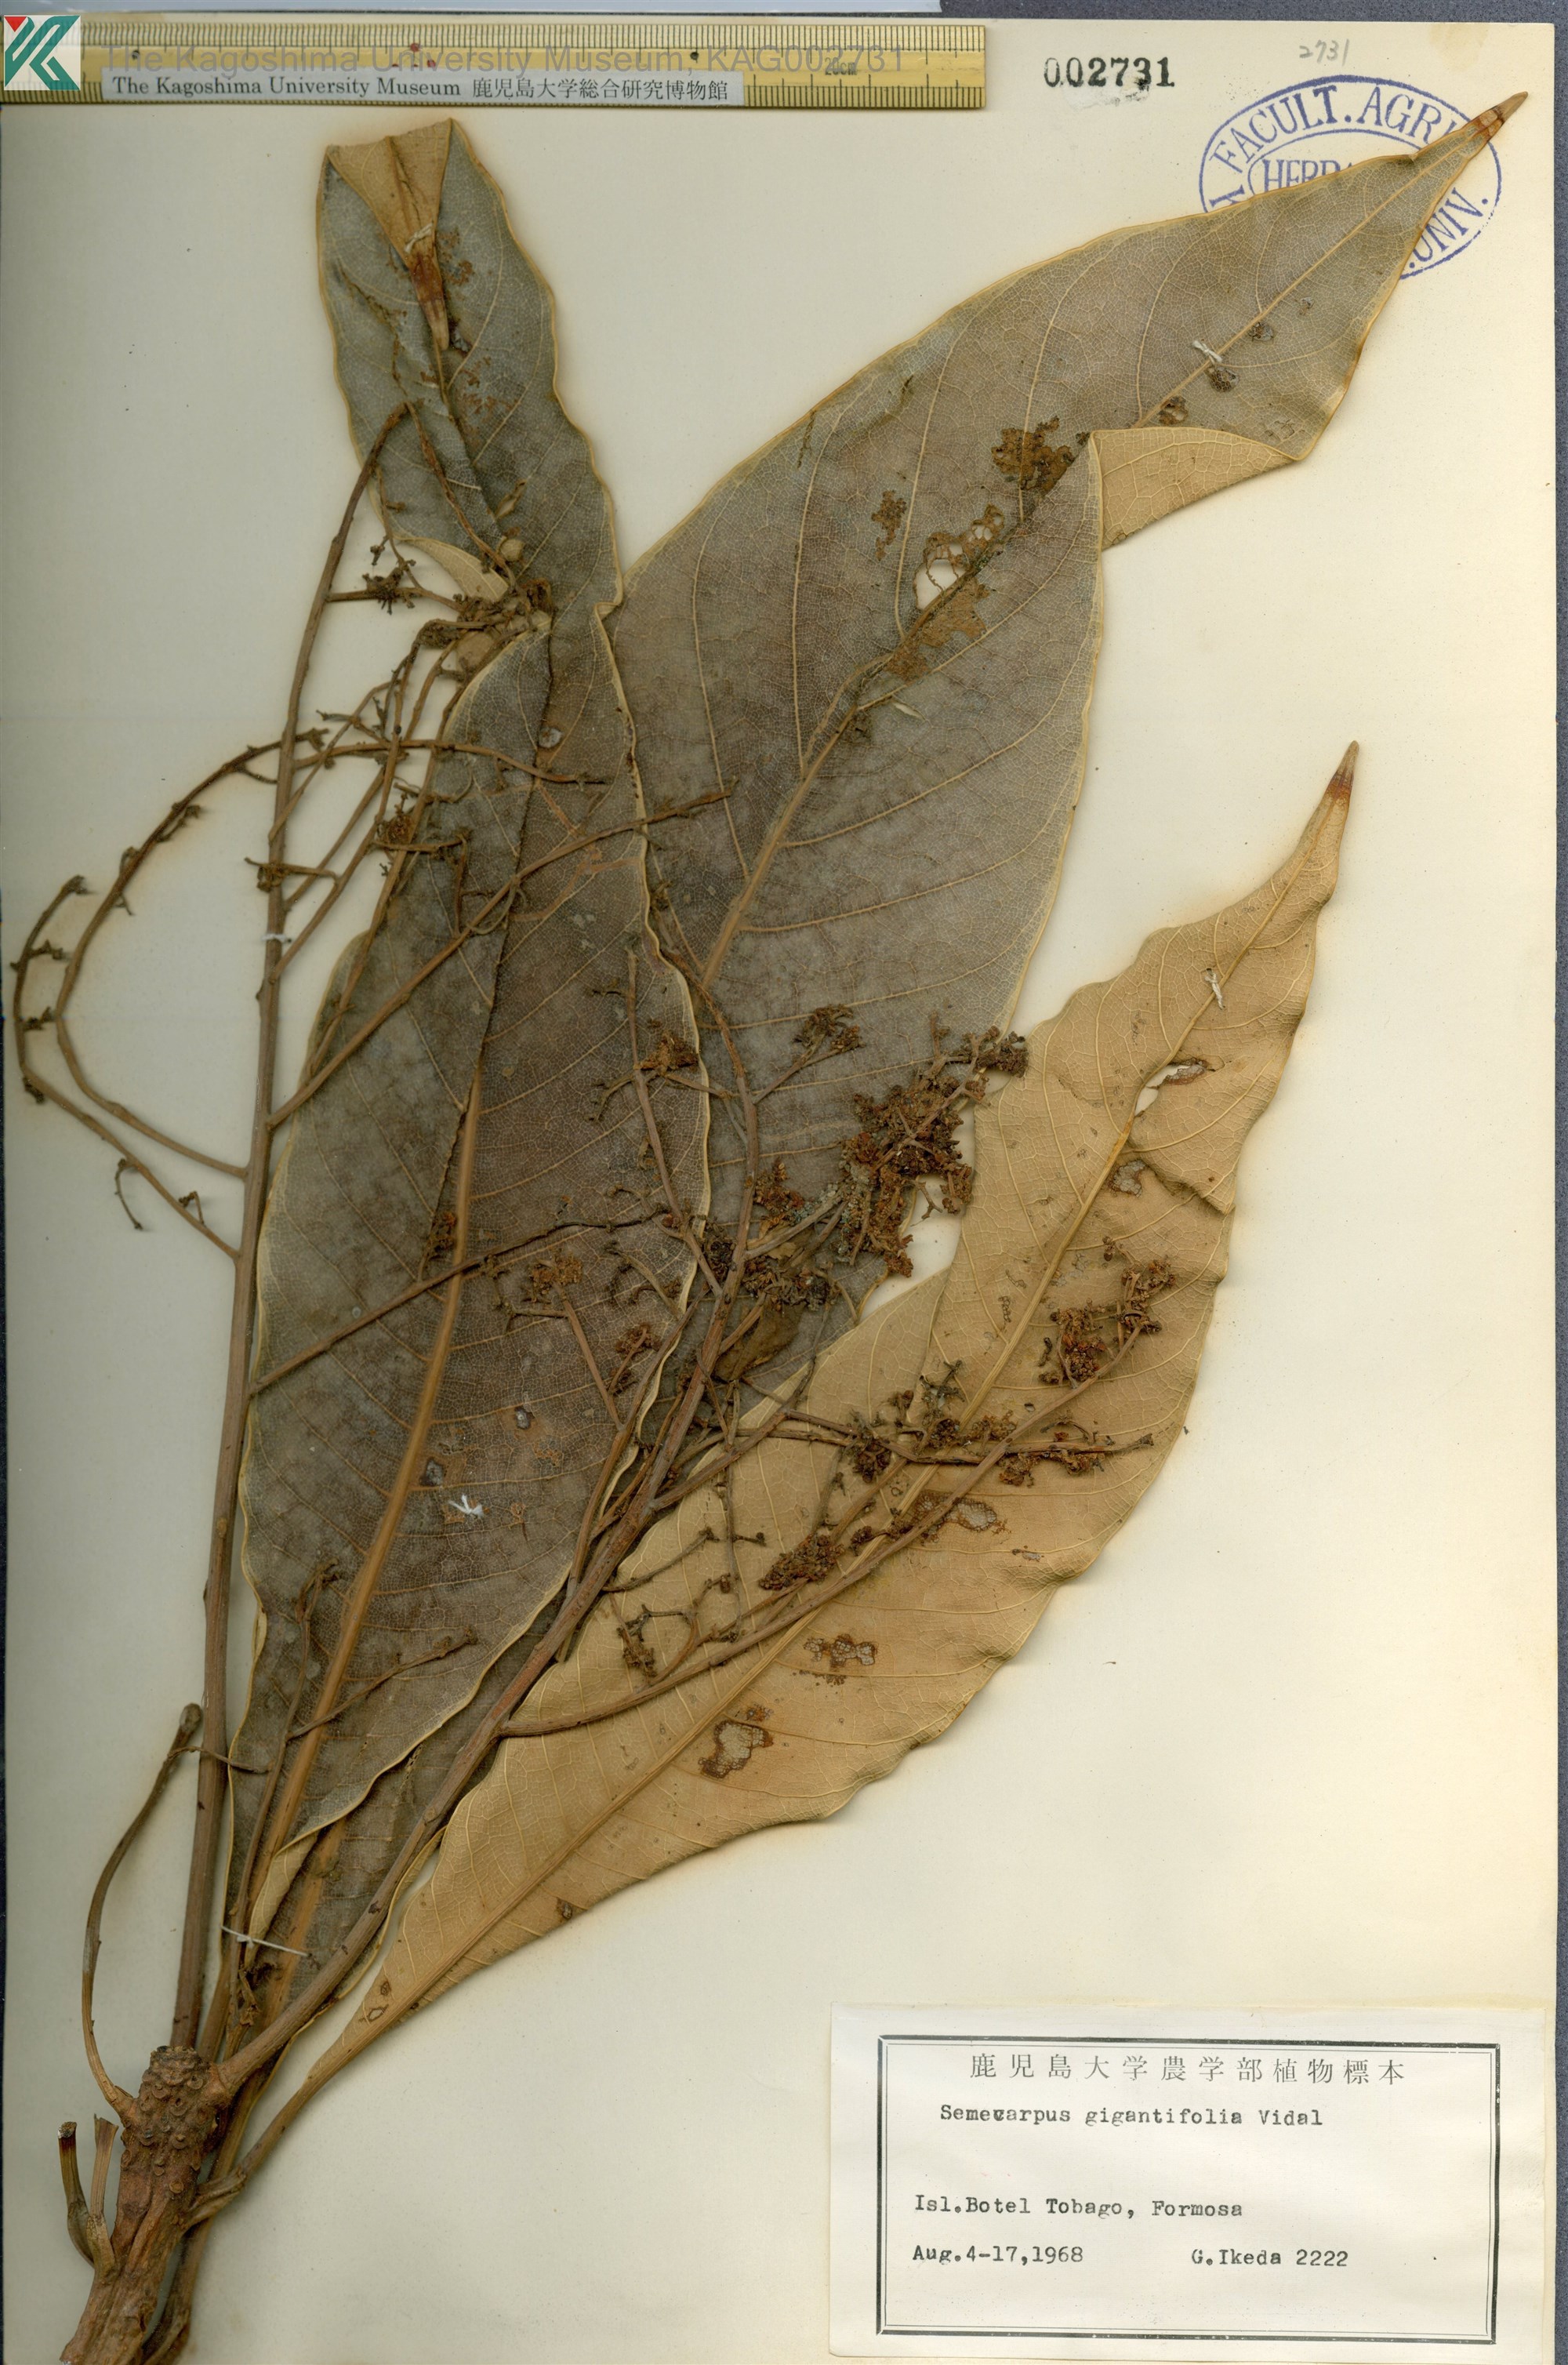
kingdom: Plantae
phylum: Tracheophyta
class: Magnoliopsida
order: Sapindales
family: Anacardiaceae
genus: Semecarpus
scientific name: Semecarpus longifolius
